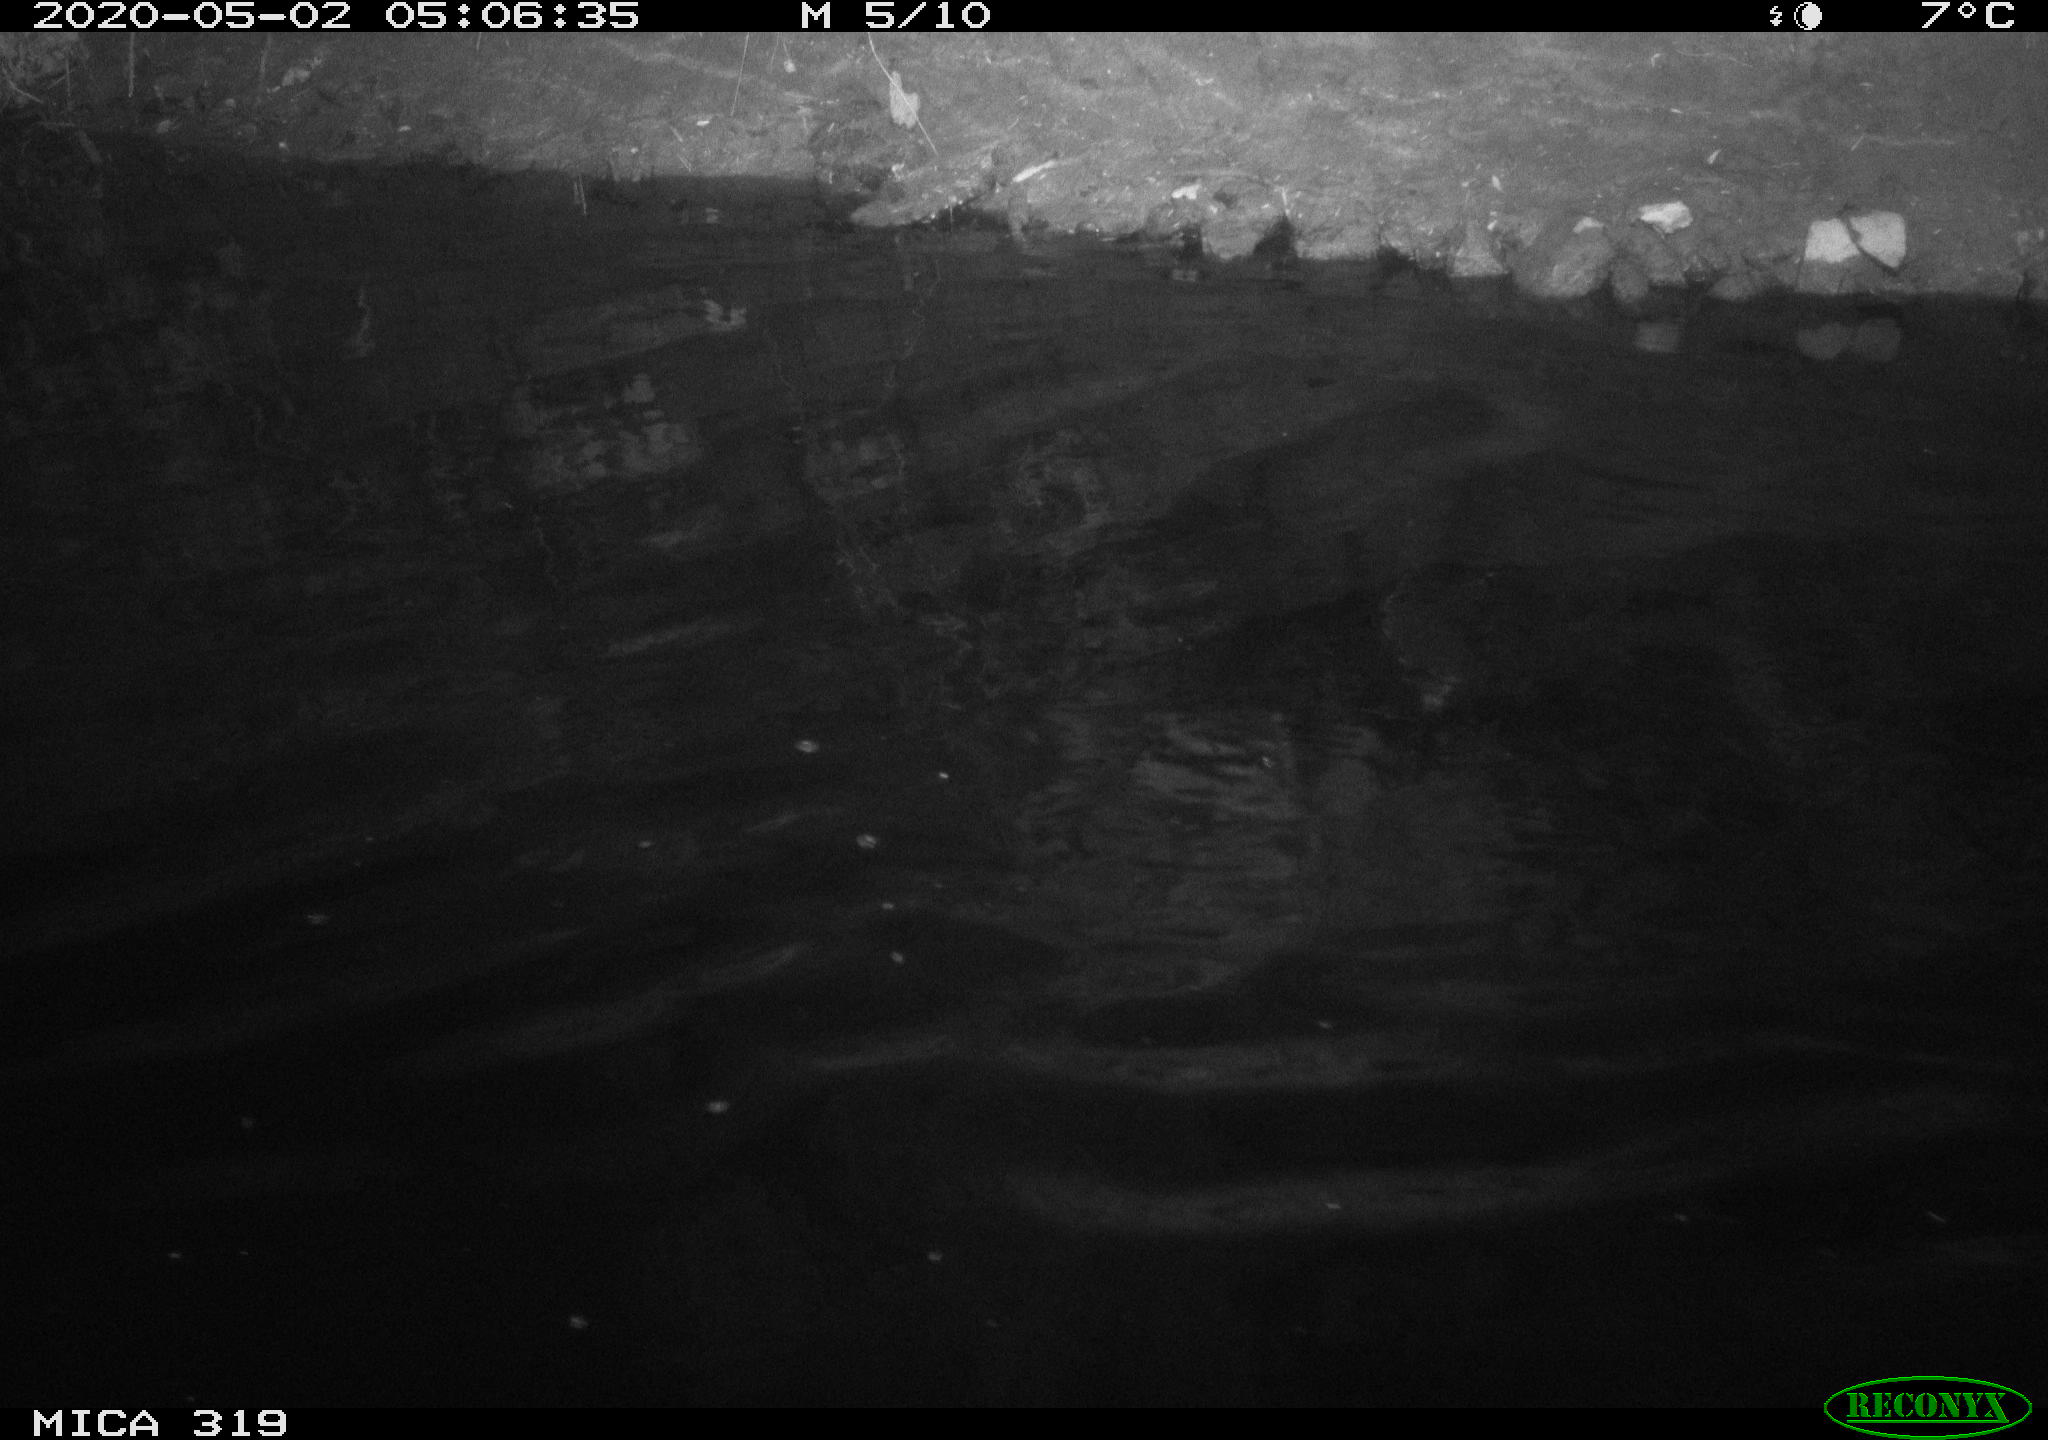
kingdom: Animalia
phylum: Chordata
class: Aves
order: Anseriformes
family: Anatidae
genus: Anas
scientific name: Anas platyrhynchos
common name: Mallard
